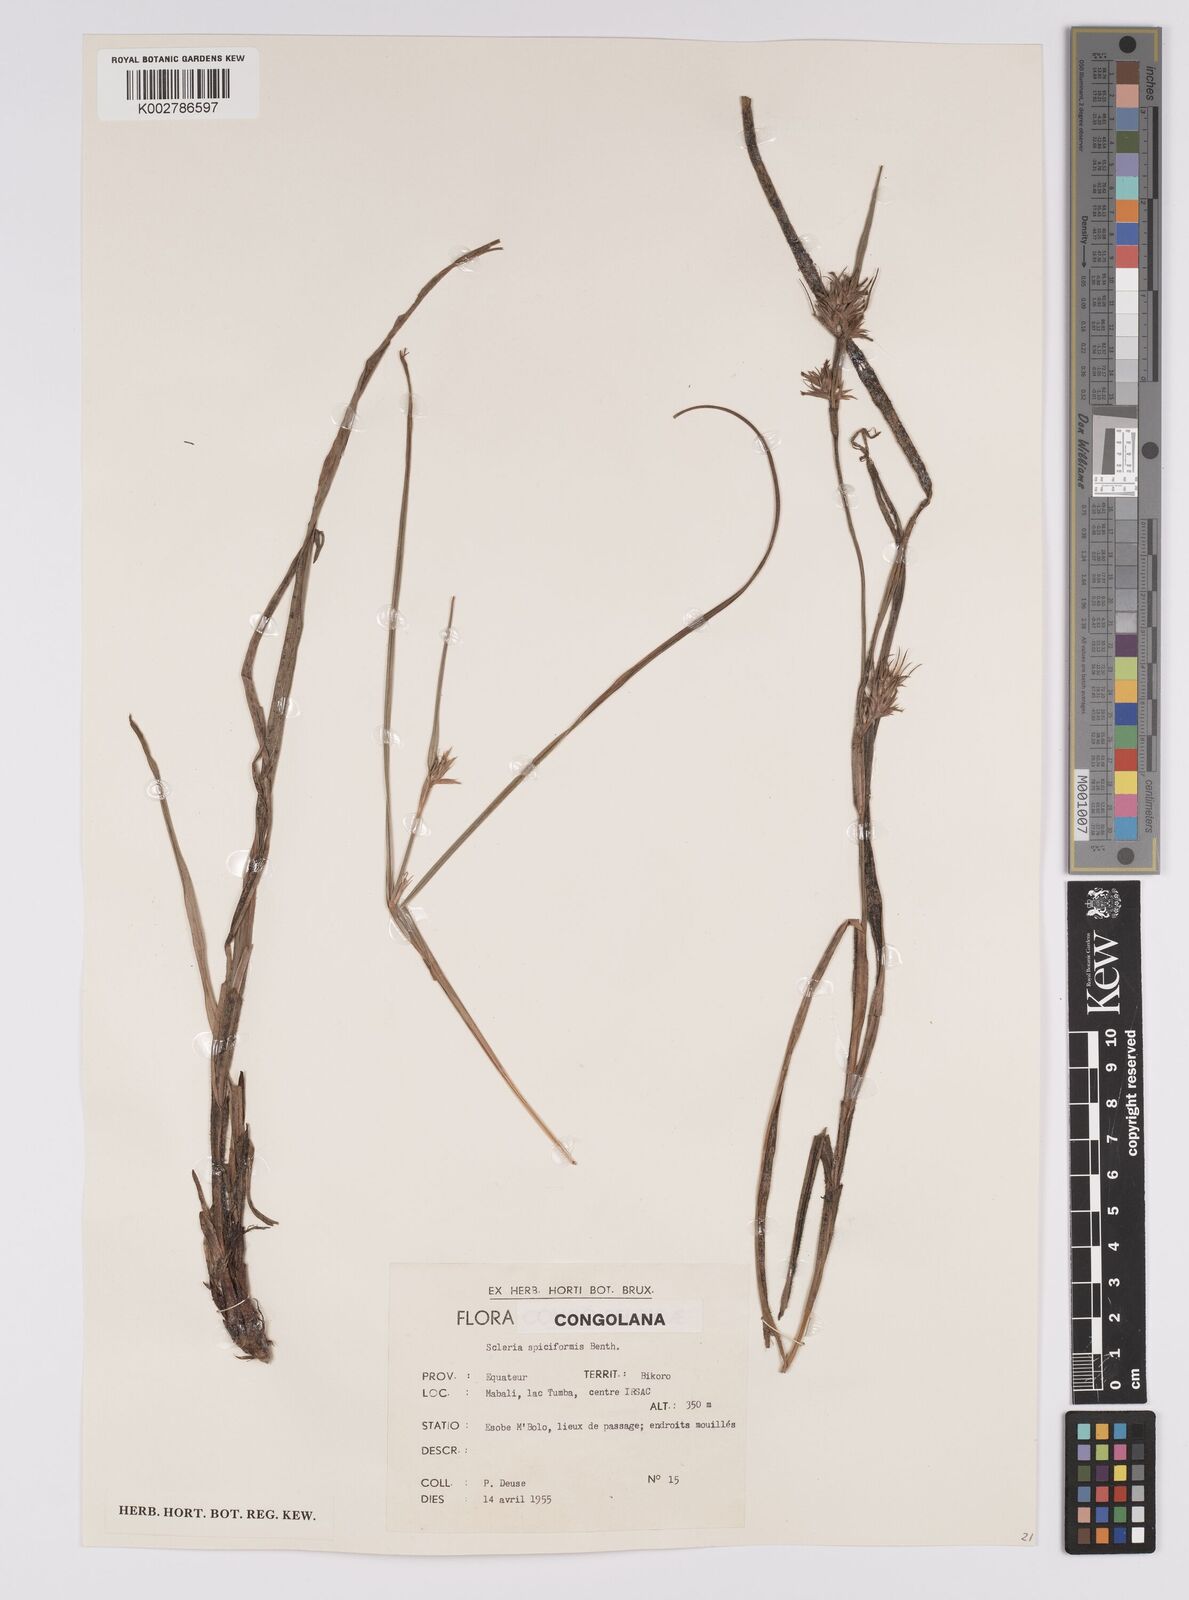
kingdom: Plantae
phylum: Tracheophyta
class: Liliopsida
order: Poales
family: Cyperaceae
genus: Scleria
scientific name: Scleria spiciformis
